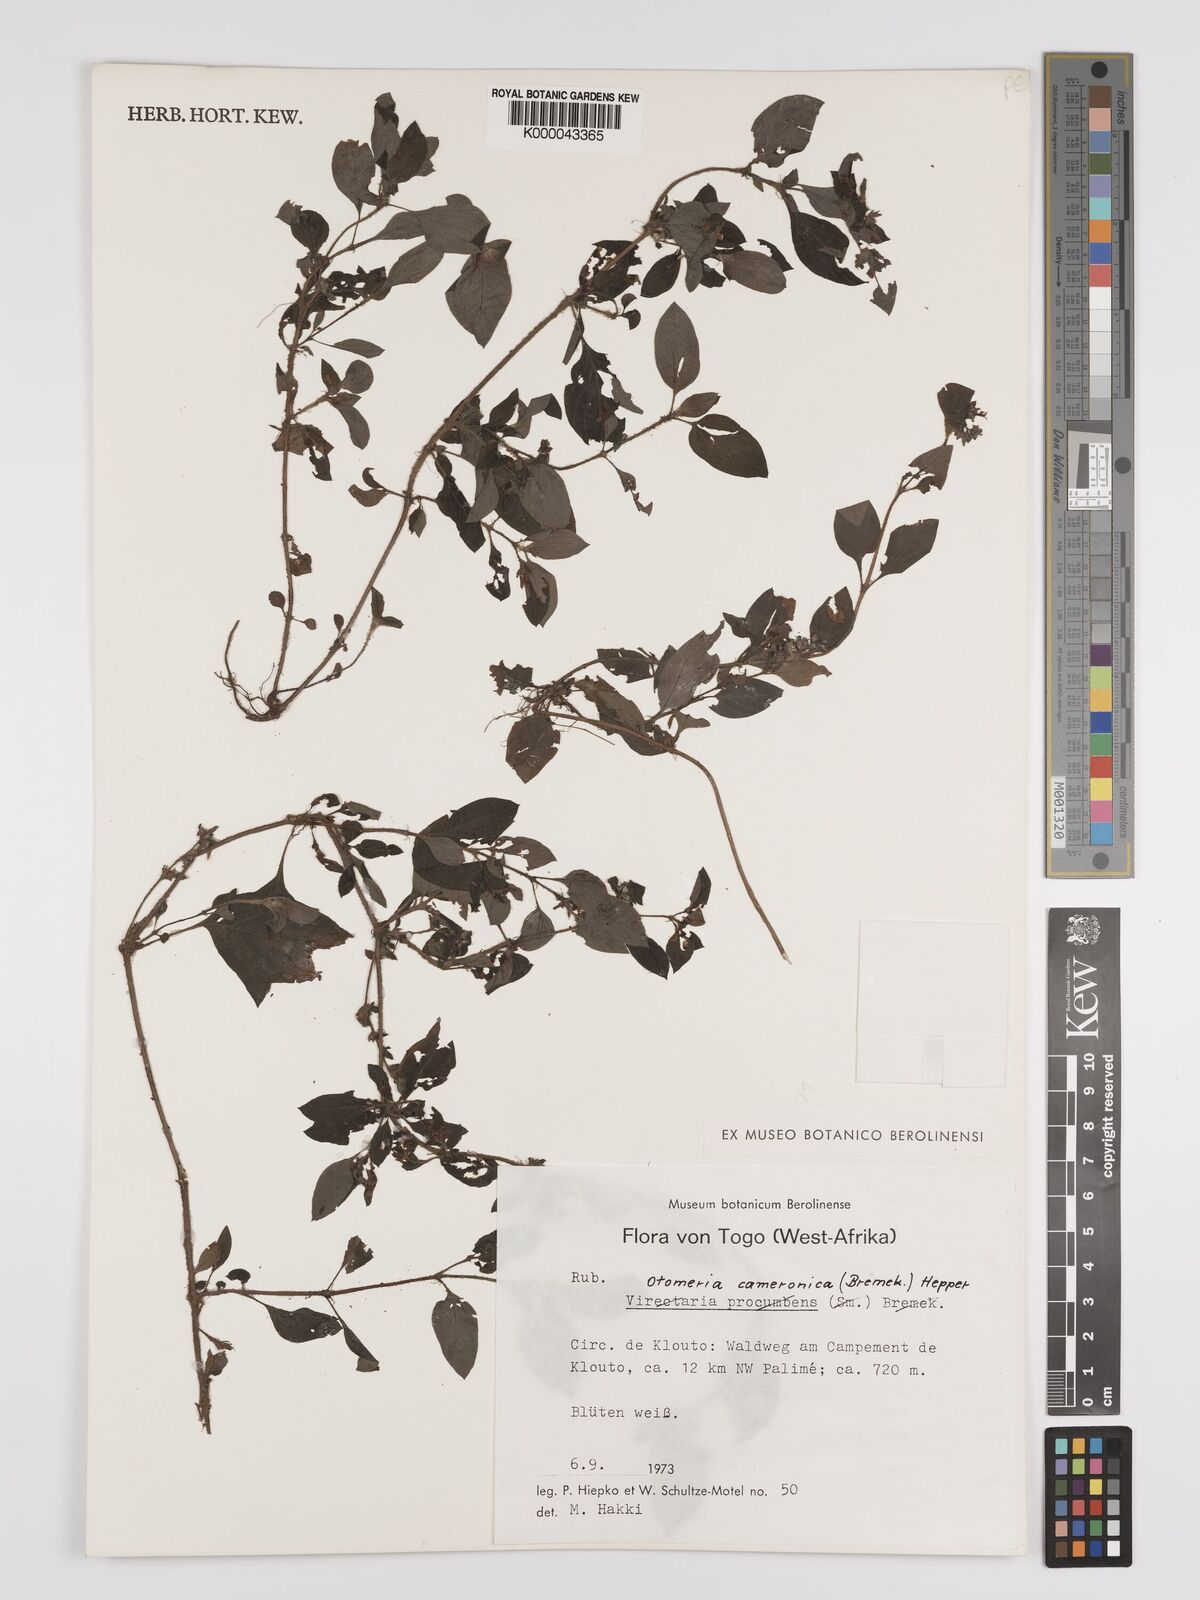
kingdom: Plantae
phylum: Tracheophyta
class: Magnoliopsida
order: Gentianales
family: Rubiaceae
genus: Otomeria
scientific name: Otomeria cameronica
